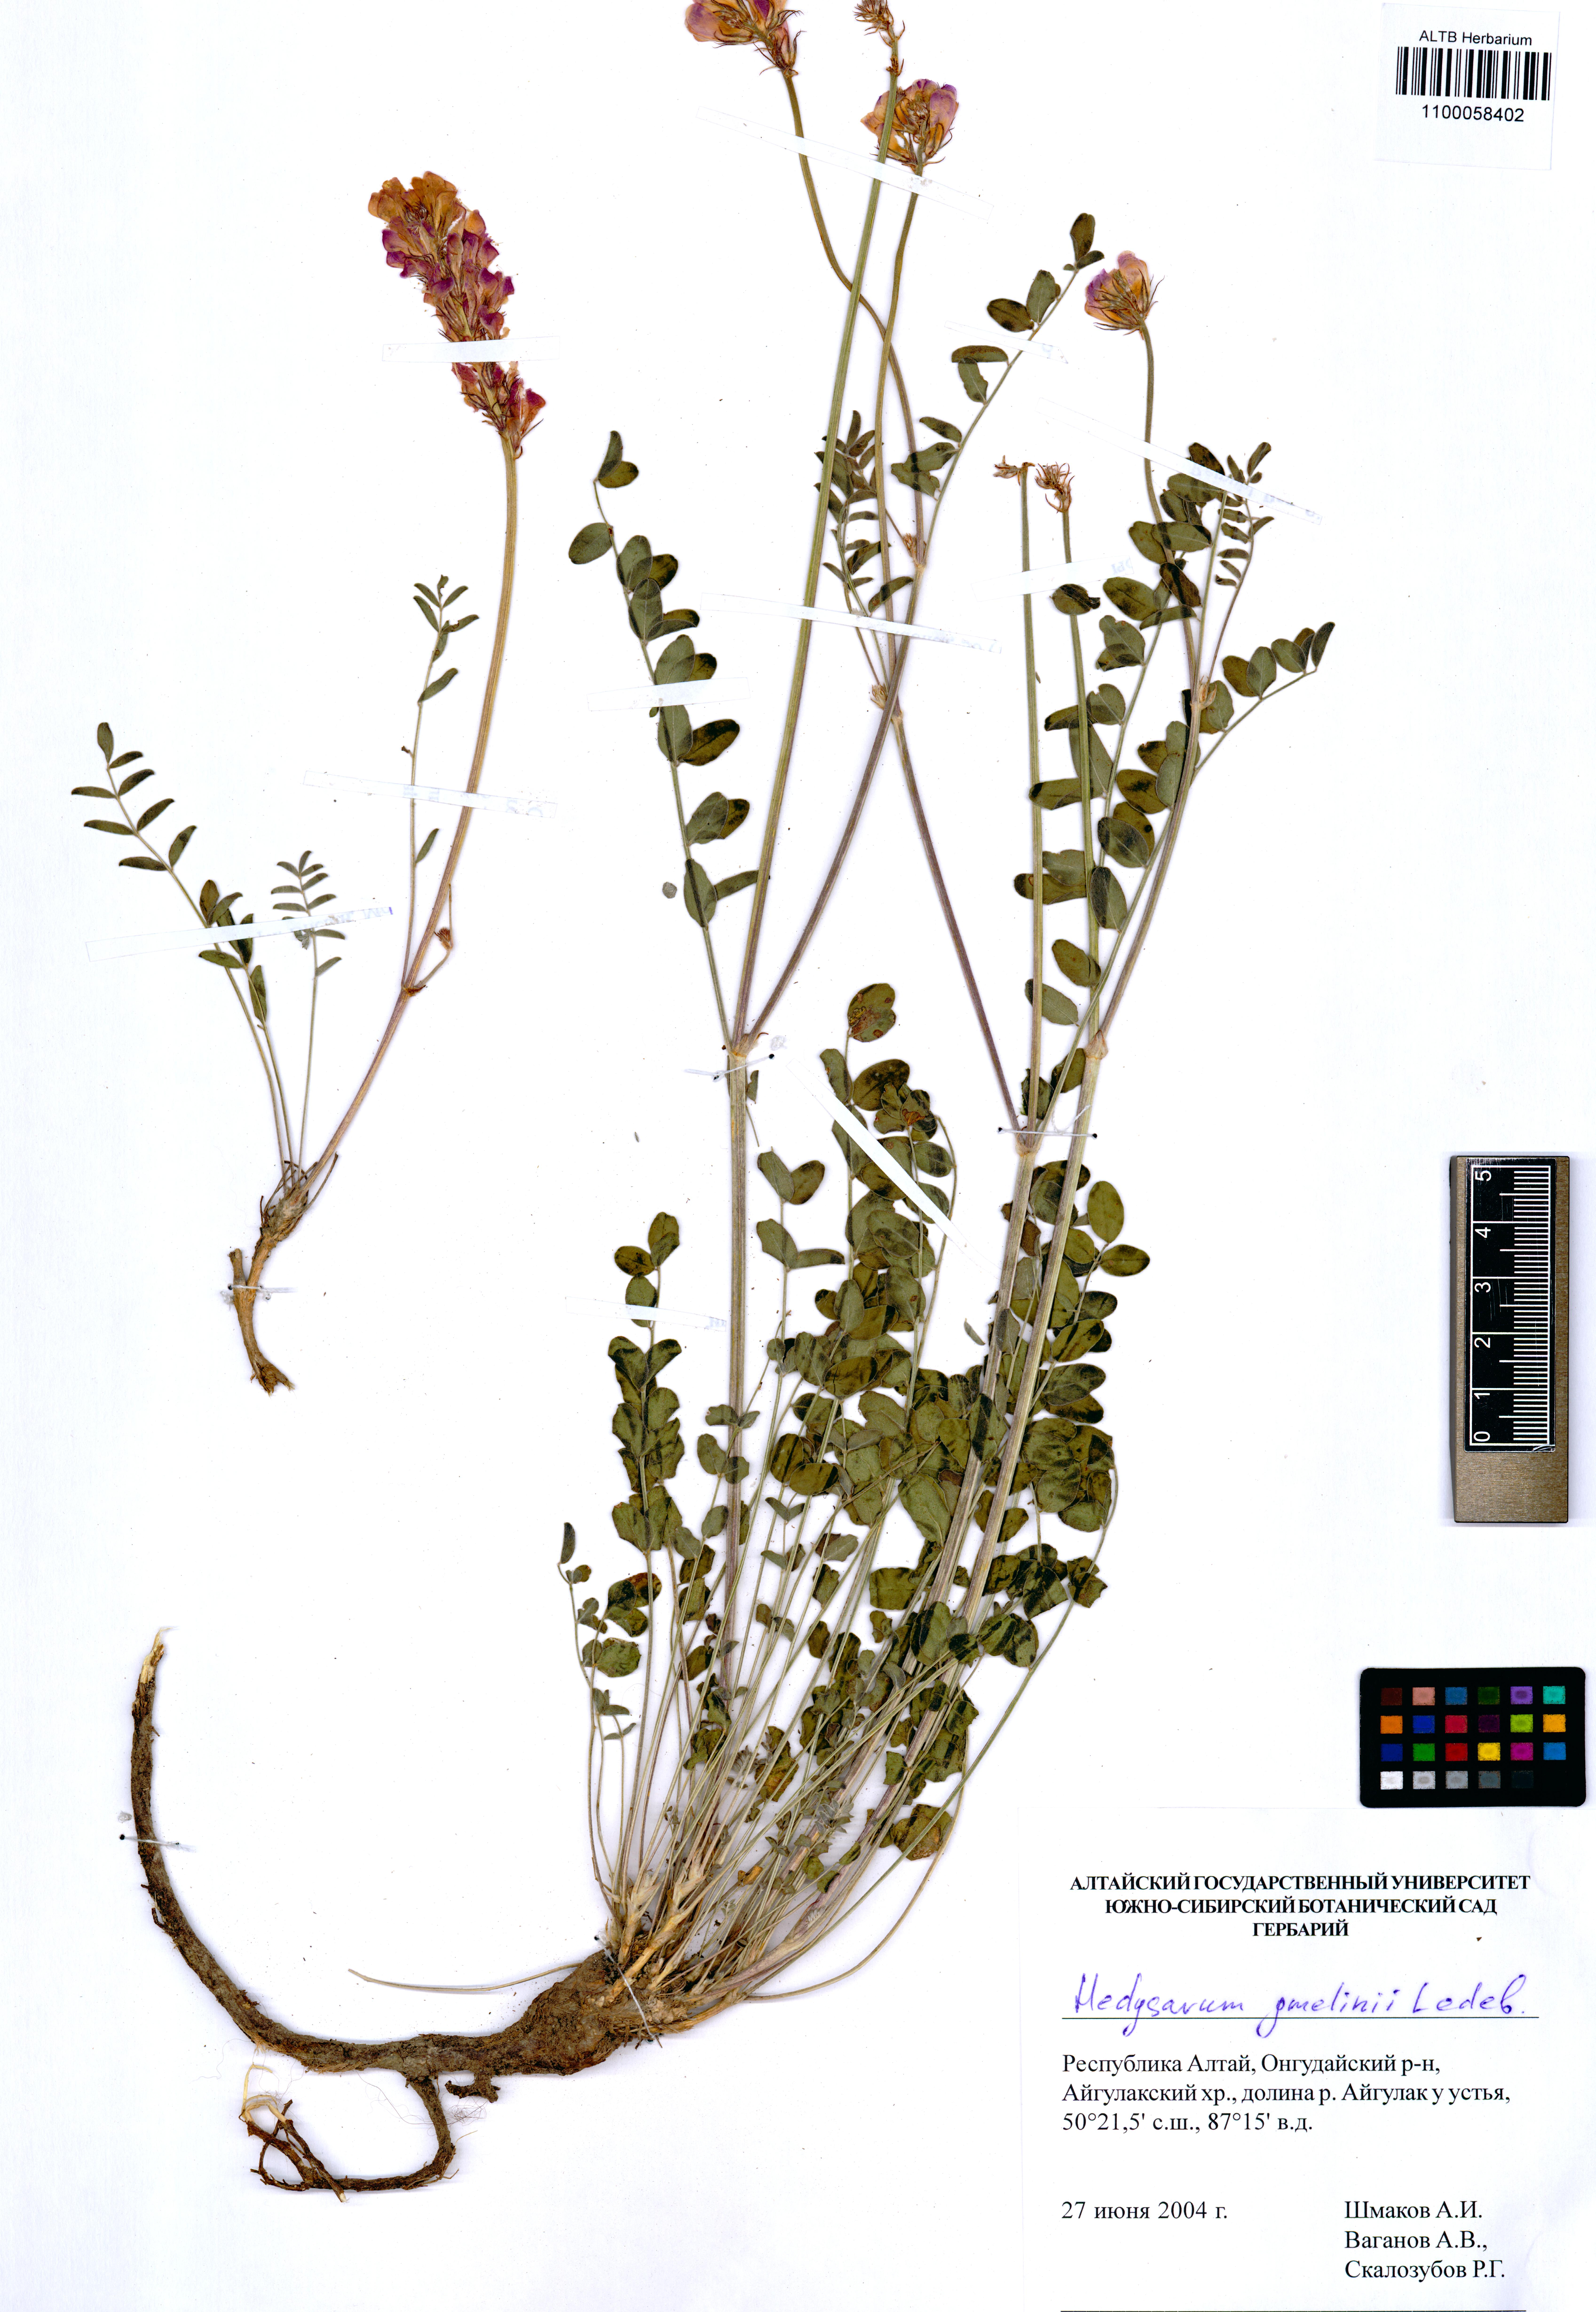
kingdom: Plantae
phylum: Tracheophyta
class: Magnoliopsida
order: Fabales
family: Fabaceae
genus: Hedysarum
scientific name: Hedysarum gmelinii
